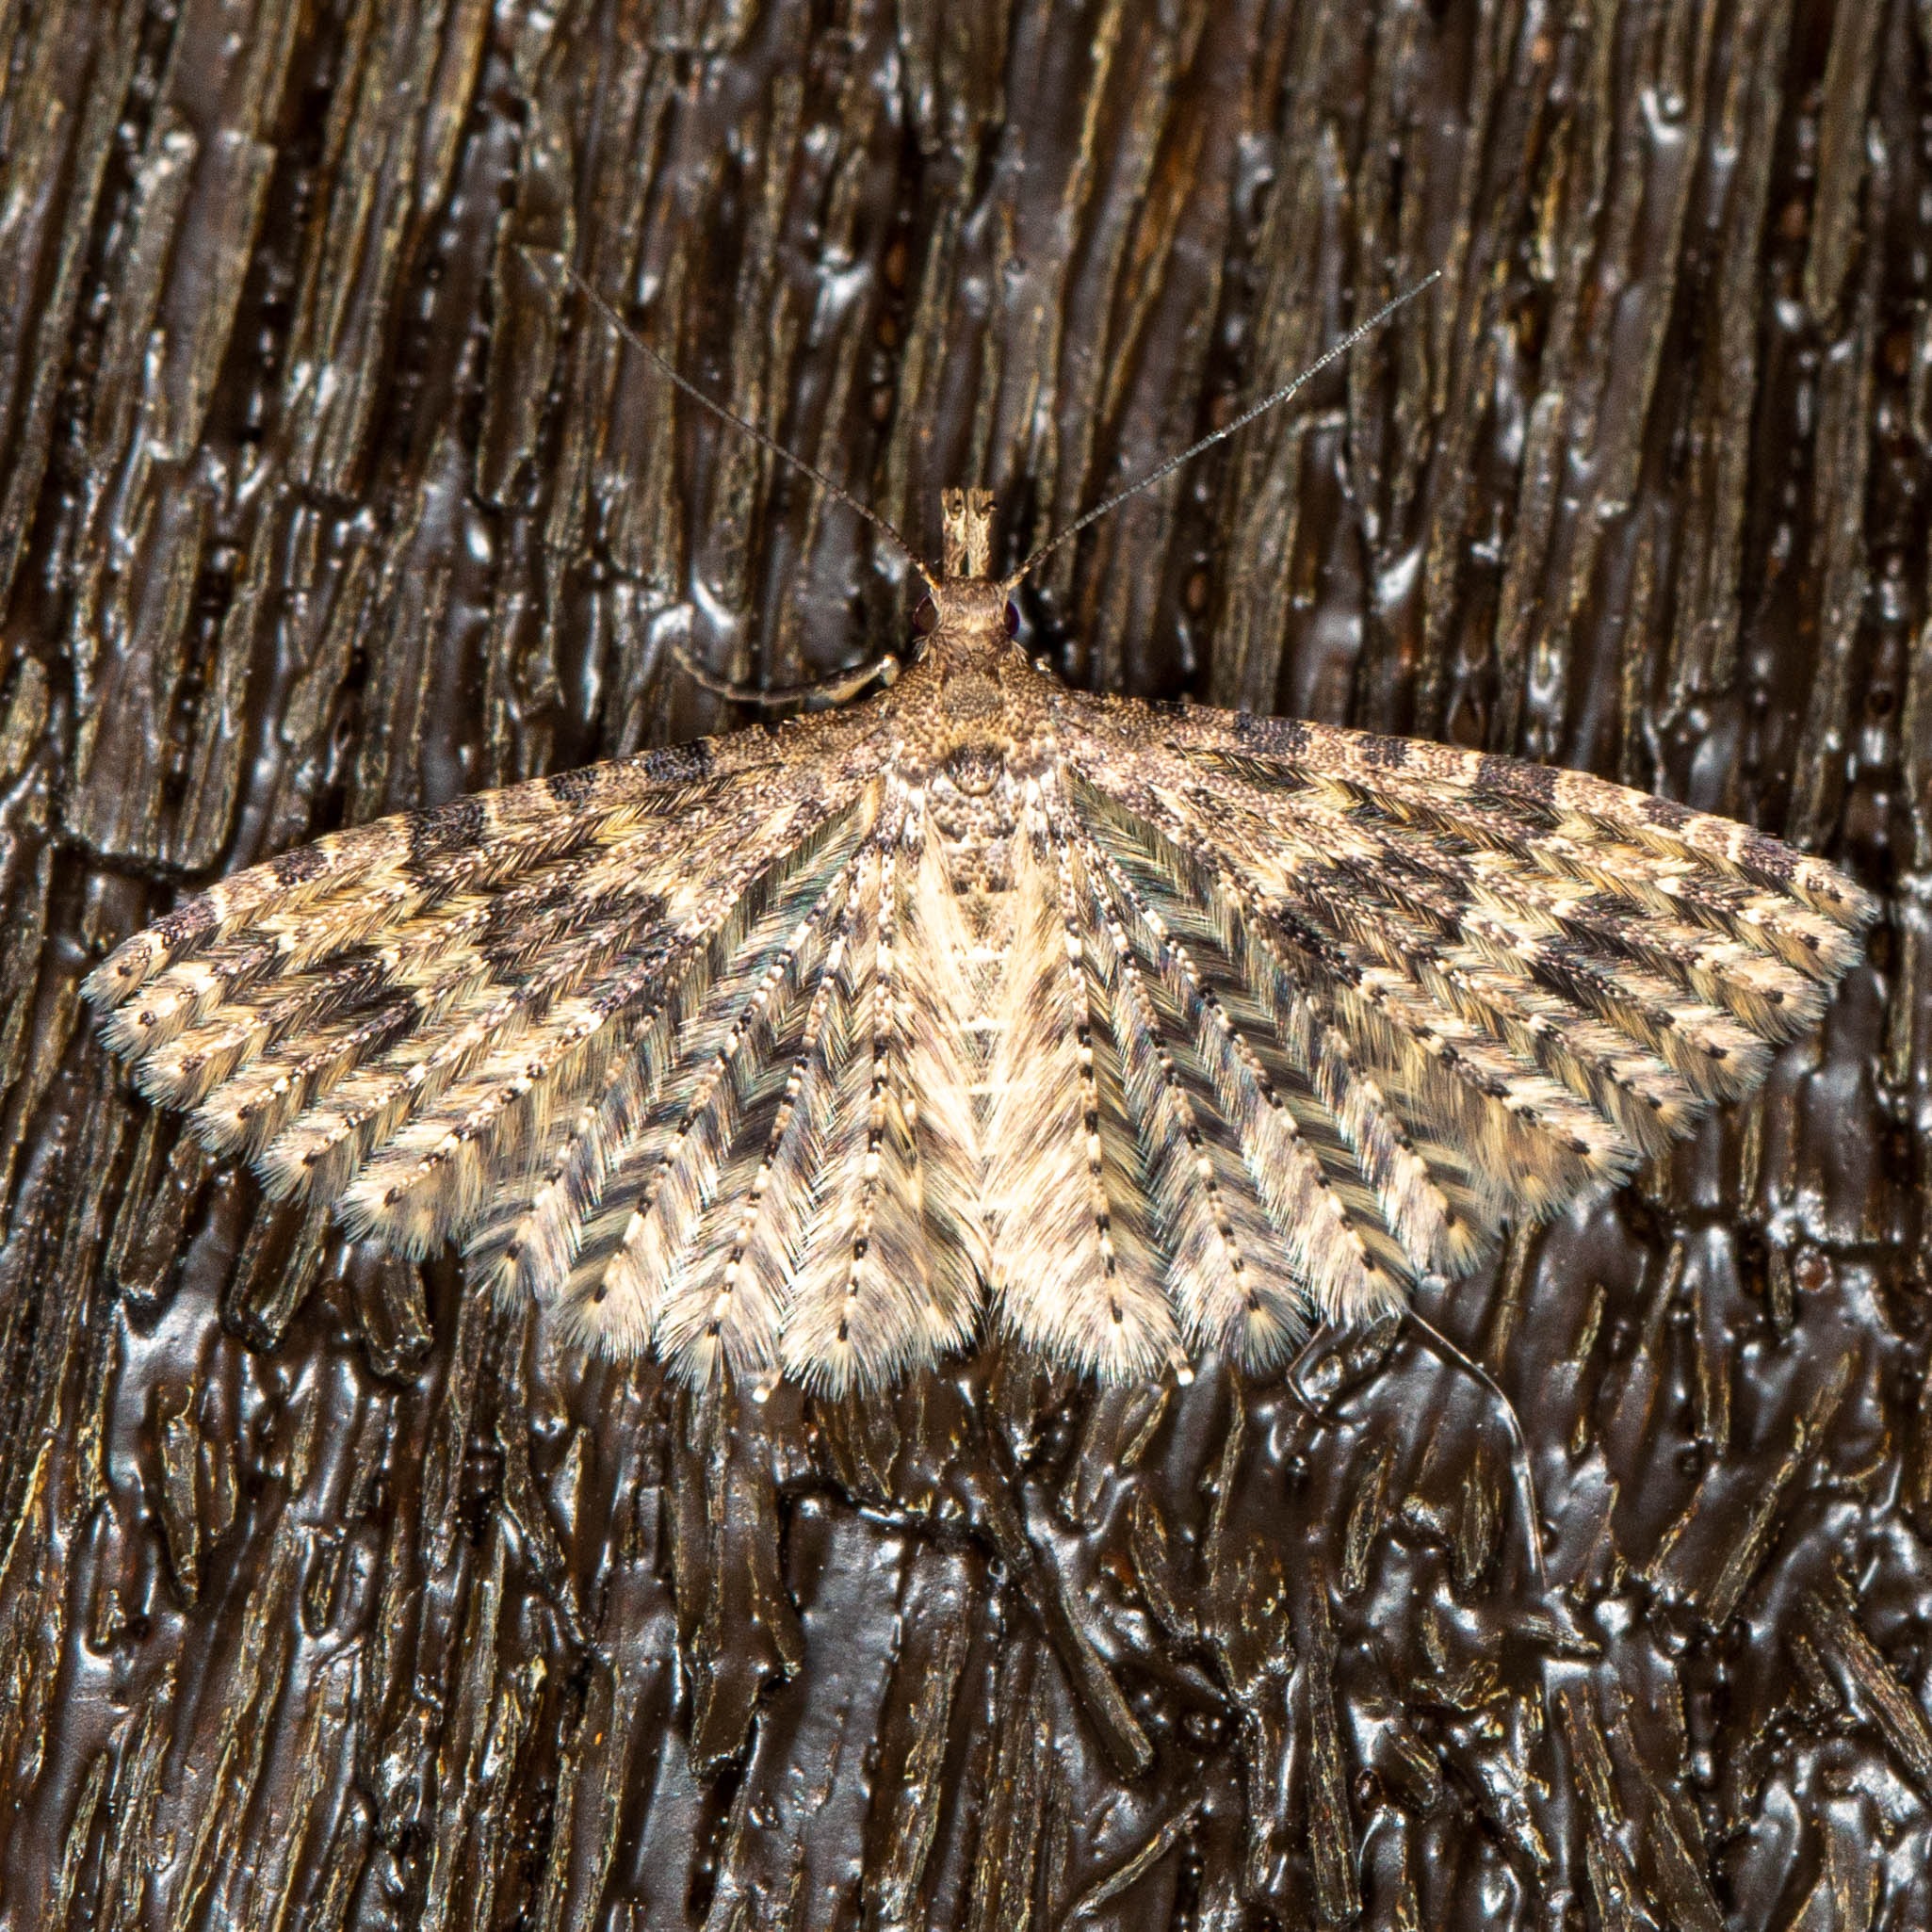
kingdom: Animalia
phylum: Arthropoda
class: Insecta
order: Lepidoptera
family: Alucitidae
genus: Alucita
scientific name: Alucita hexadactyla
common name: Kaprifoliefjermøl
